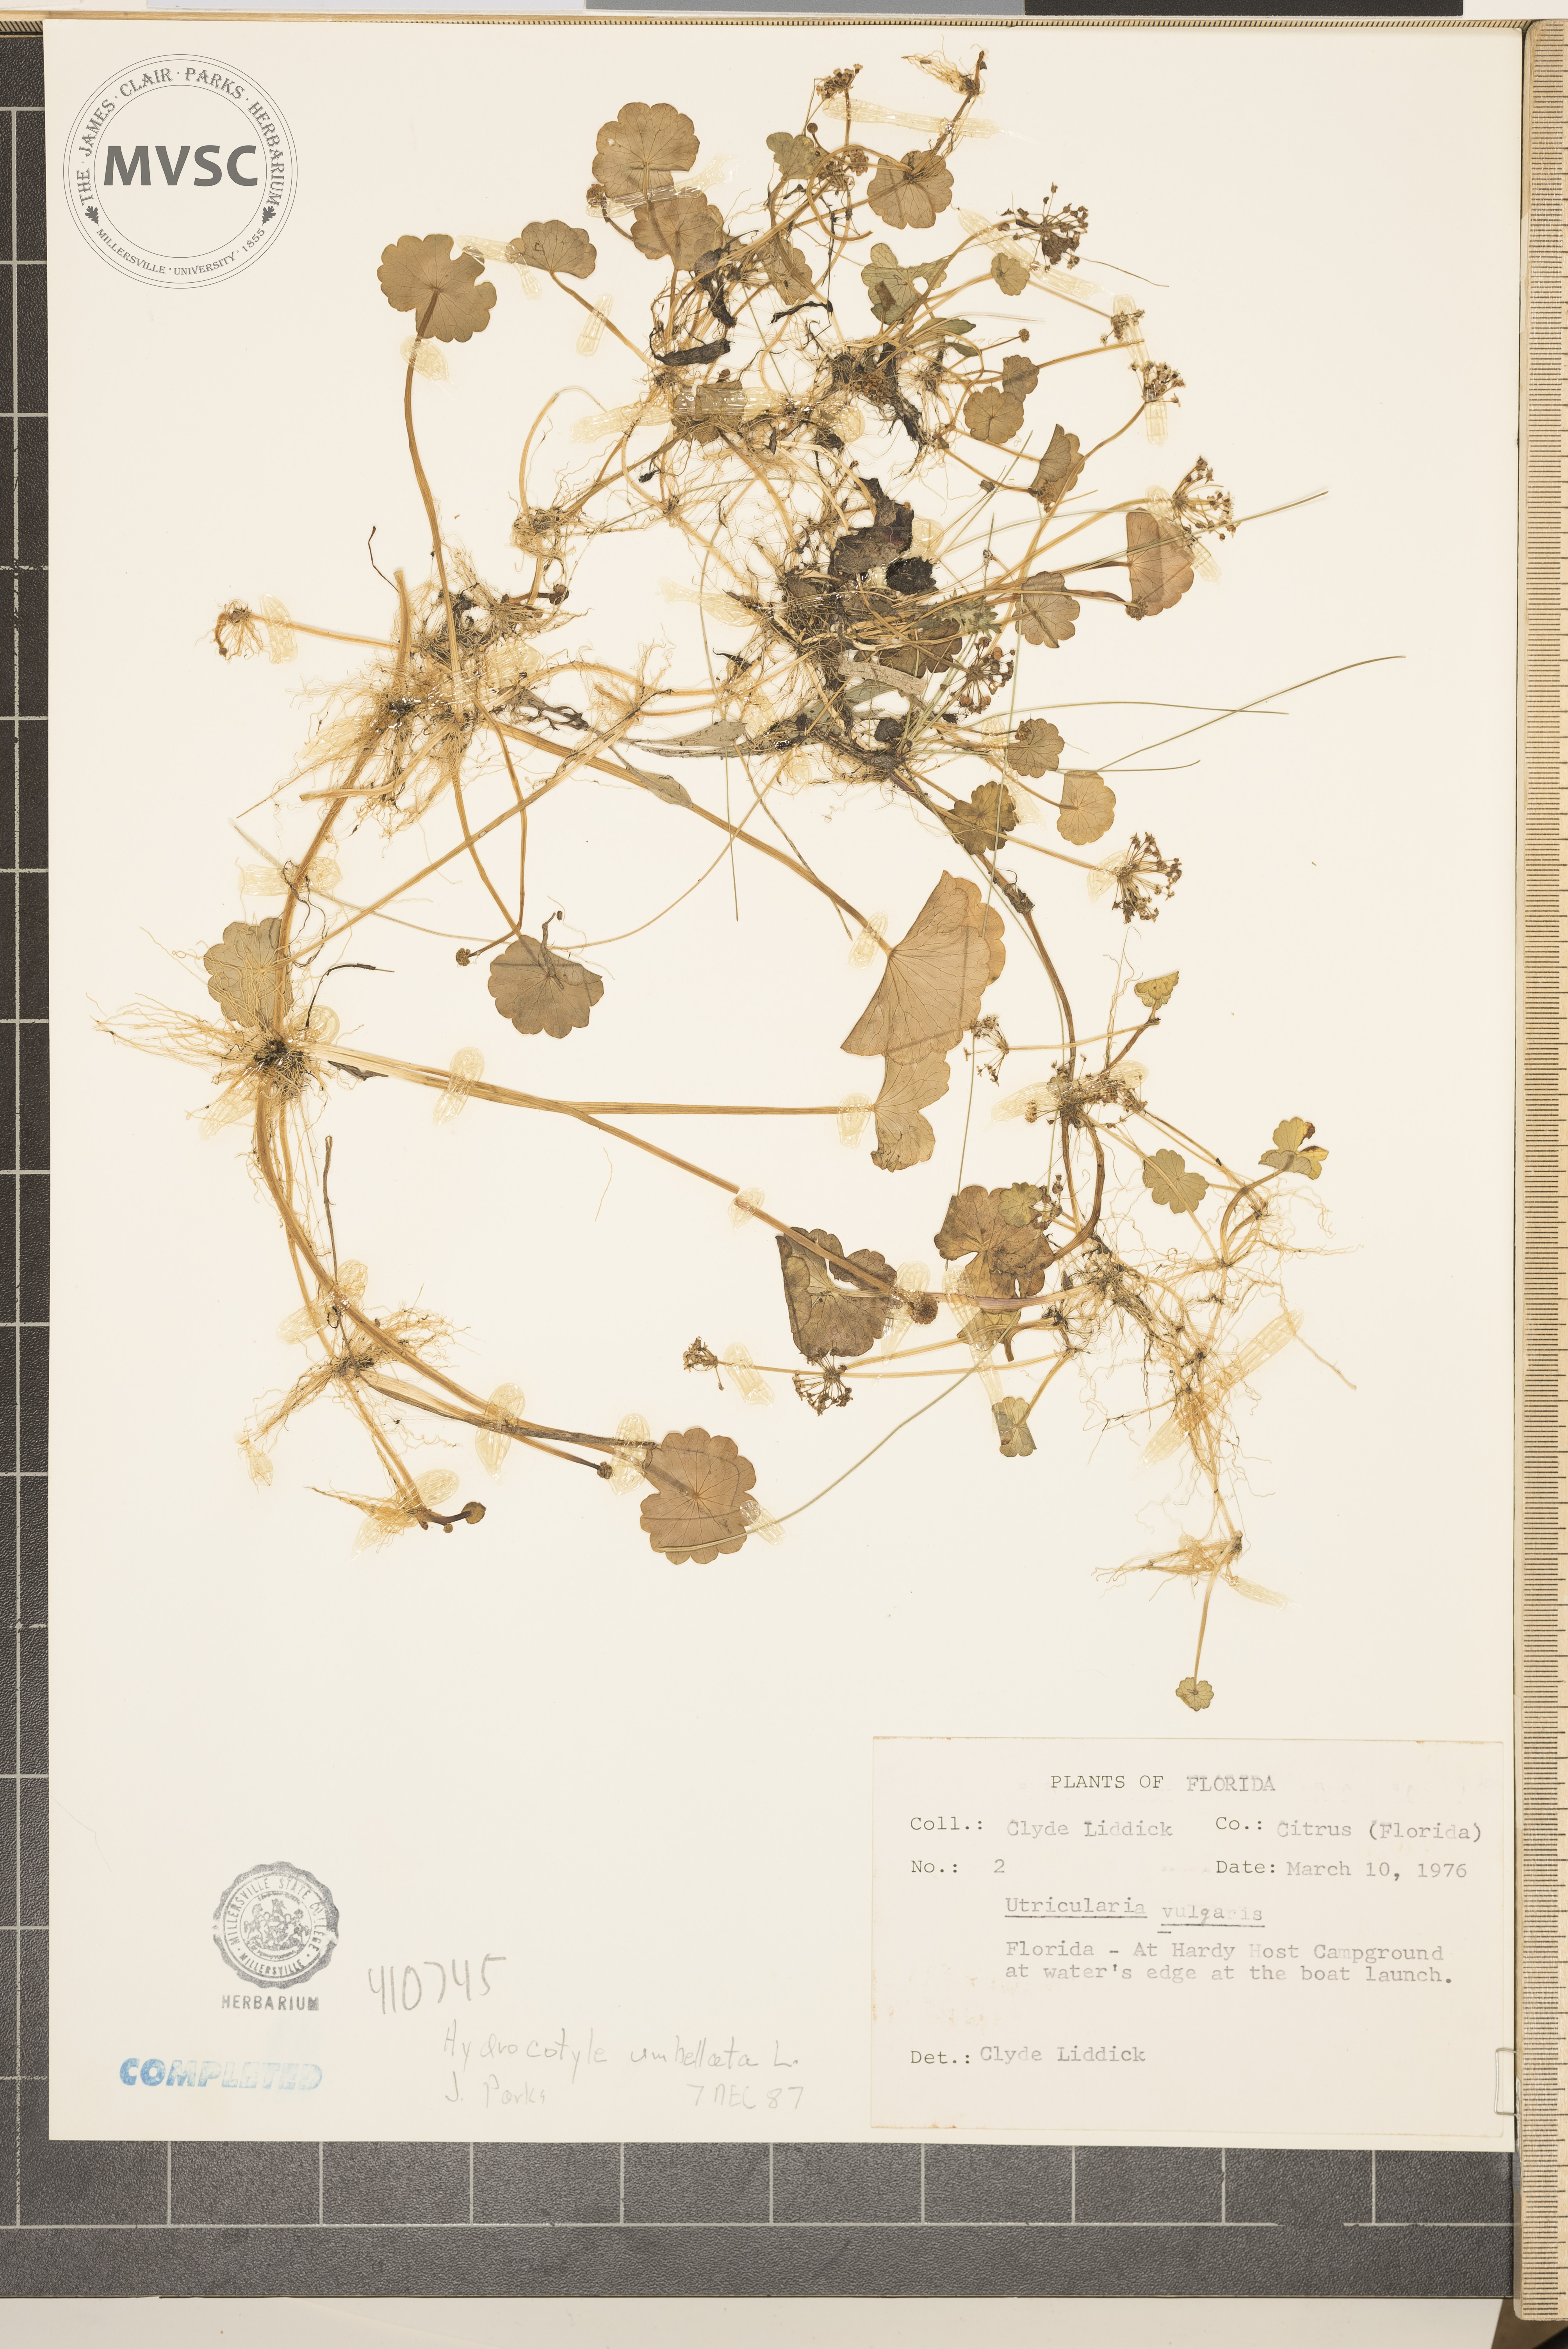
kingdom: Plantae
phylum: Tracheophyta
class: Magnoliopsida
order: Apiales
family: Araliaceae
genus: Hydrocotyle
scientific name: Hydrocotyle umbellata
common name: Water pennywort
